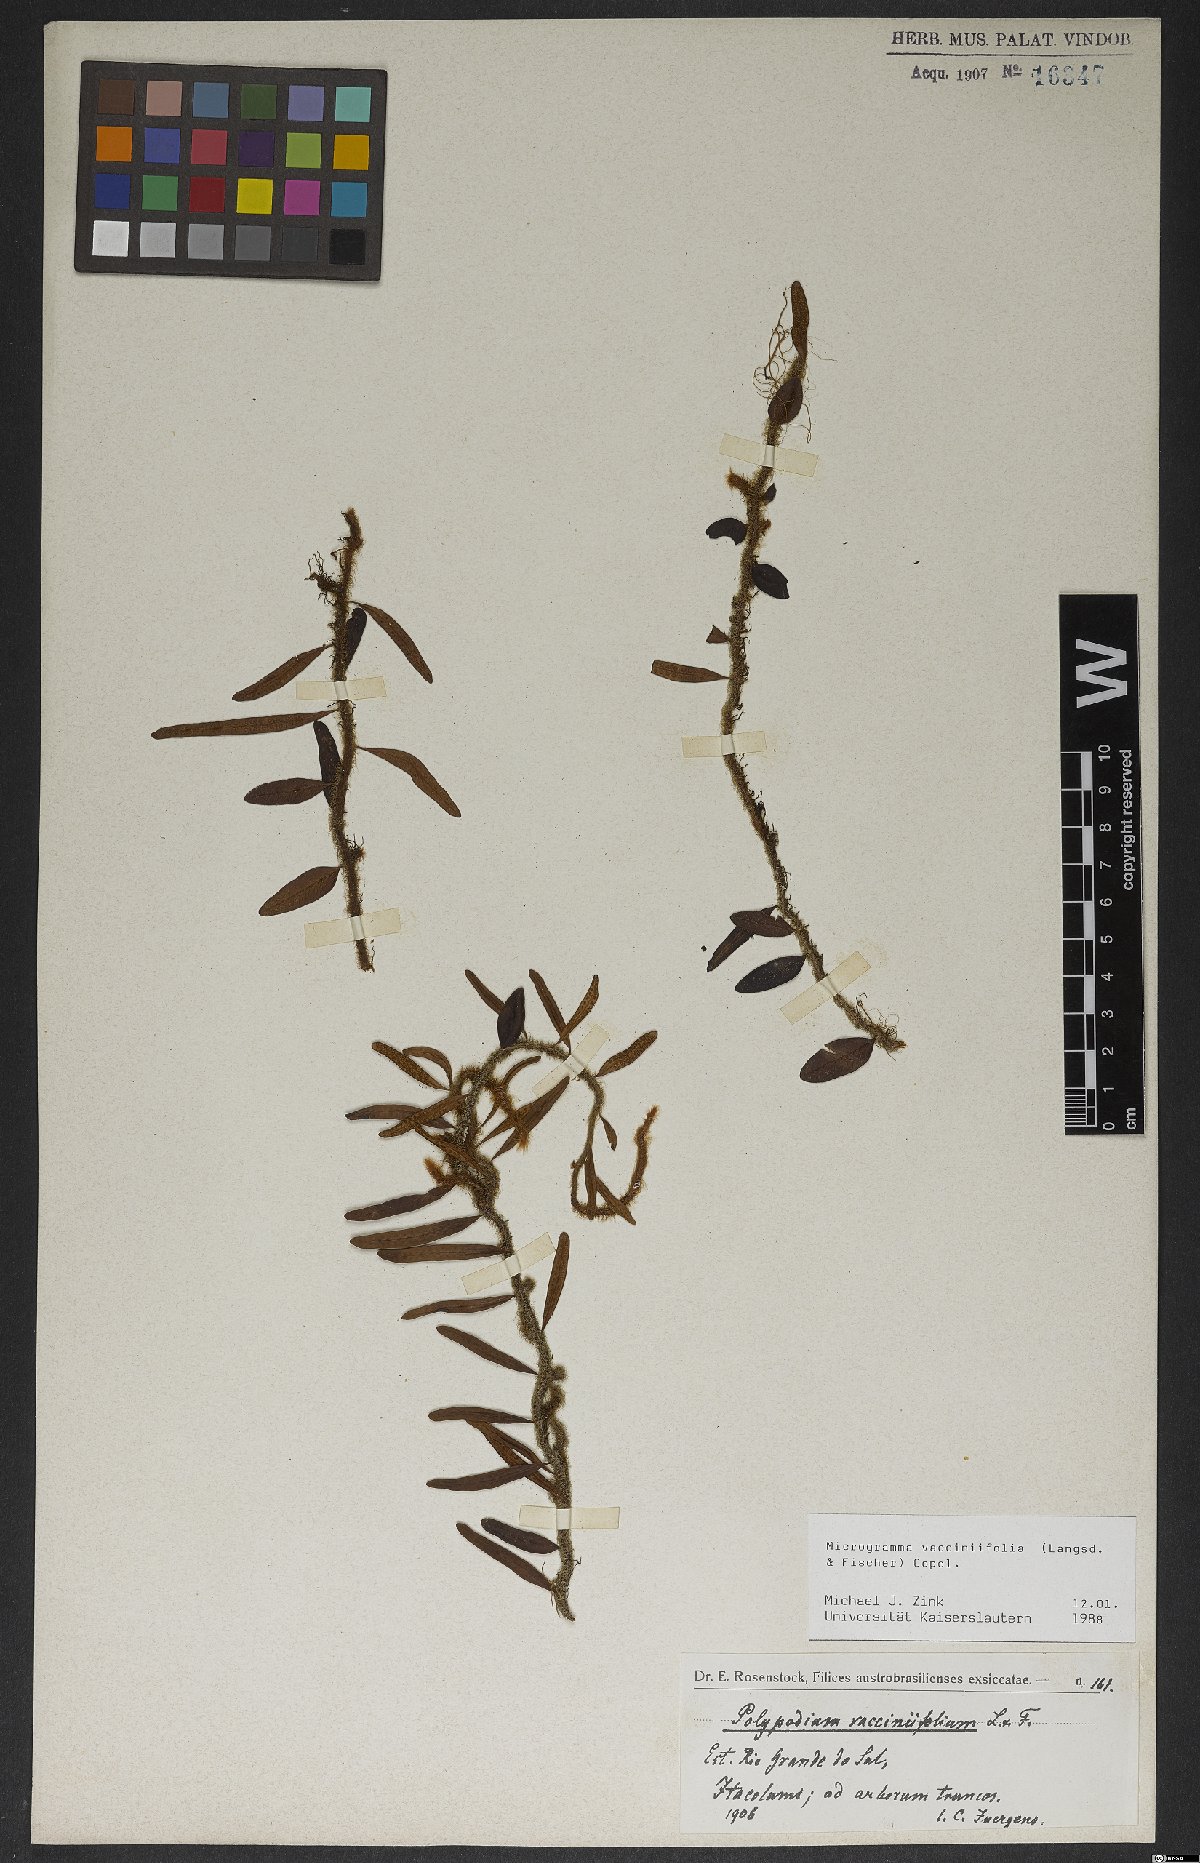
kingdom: Plantae
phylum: Tracheophyta
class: Polypodiopsida
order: Polypodiales
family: Polypodiaceae
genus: Microgramma
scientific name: Microgramma vaccinifolia
